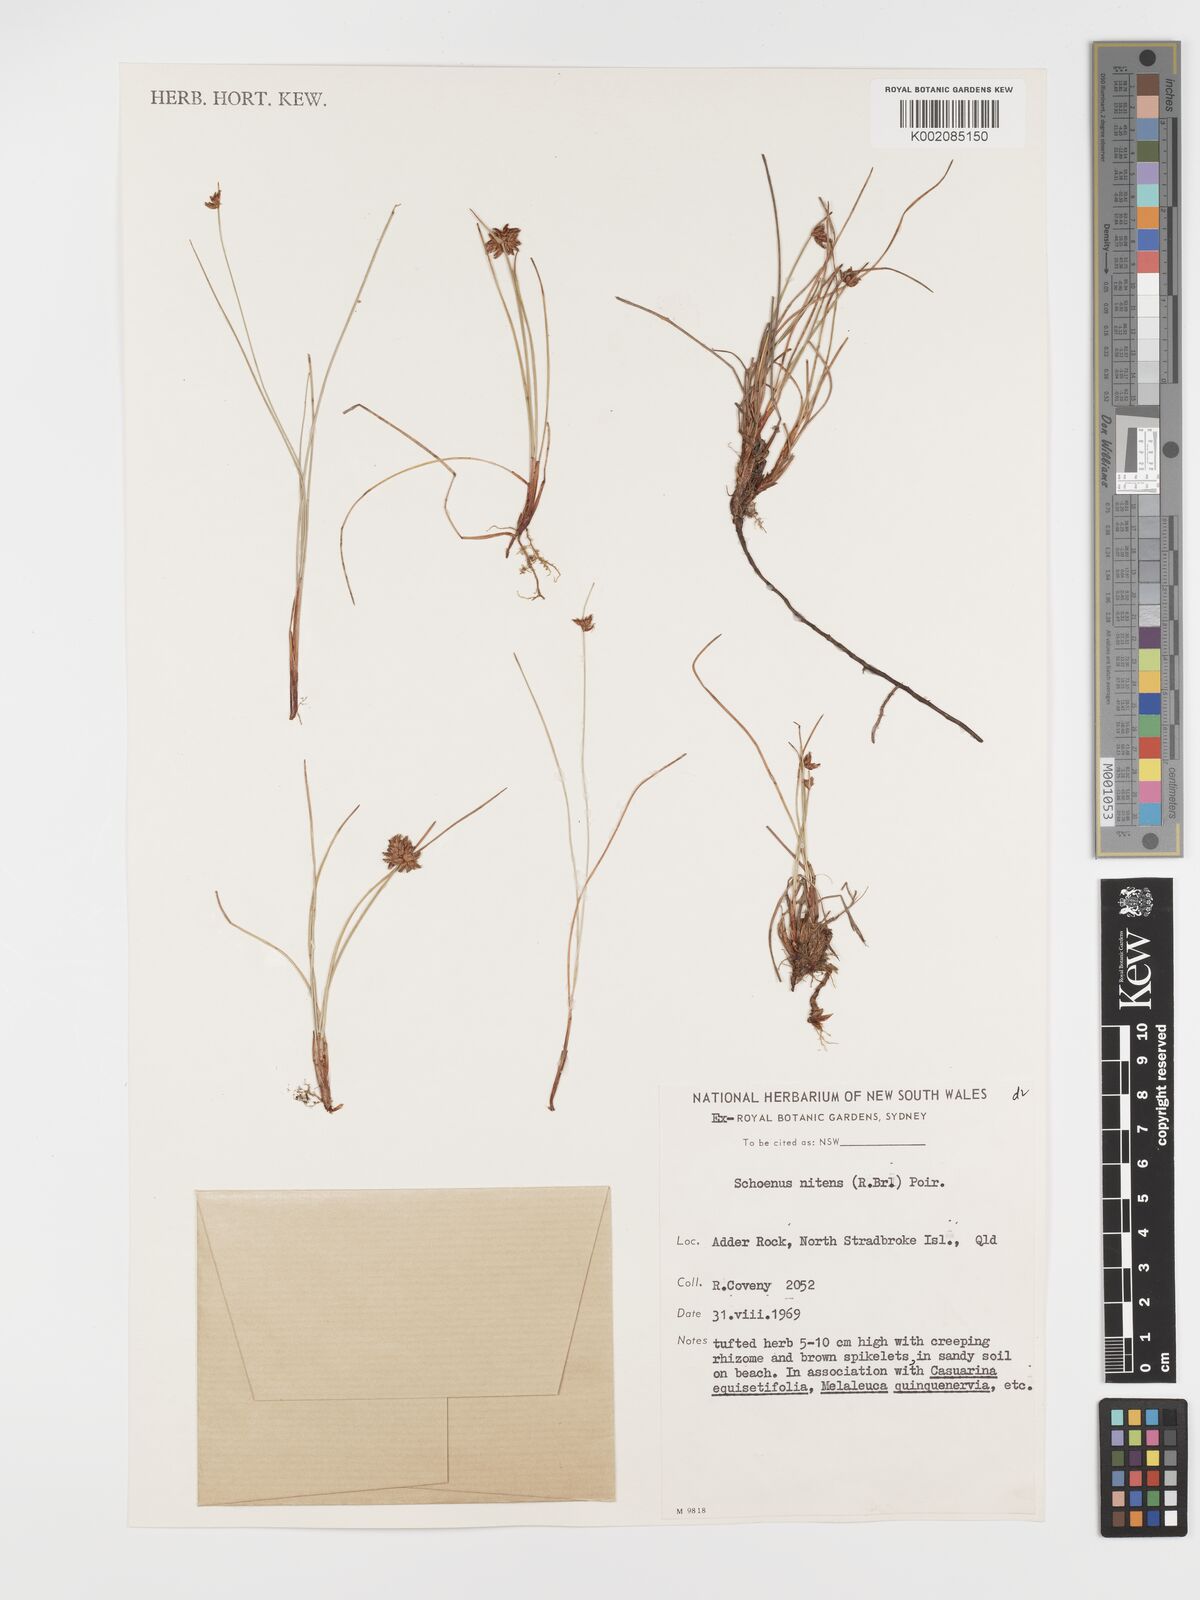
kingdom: Plantae
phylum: Tracheophyta
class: Liliopsida
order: Poales
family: Cyperaceae
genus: Schoenus
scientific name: Schoenus nitens
